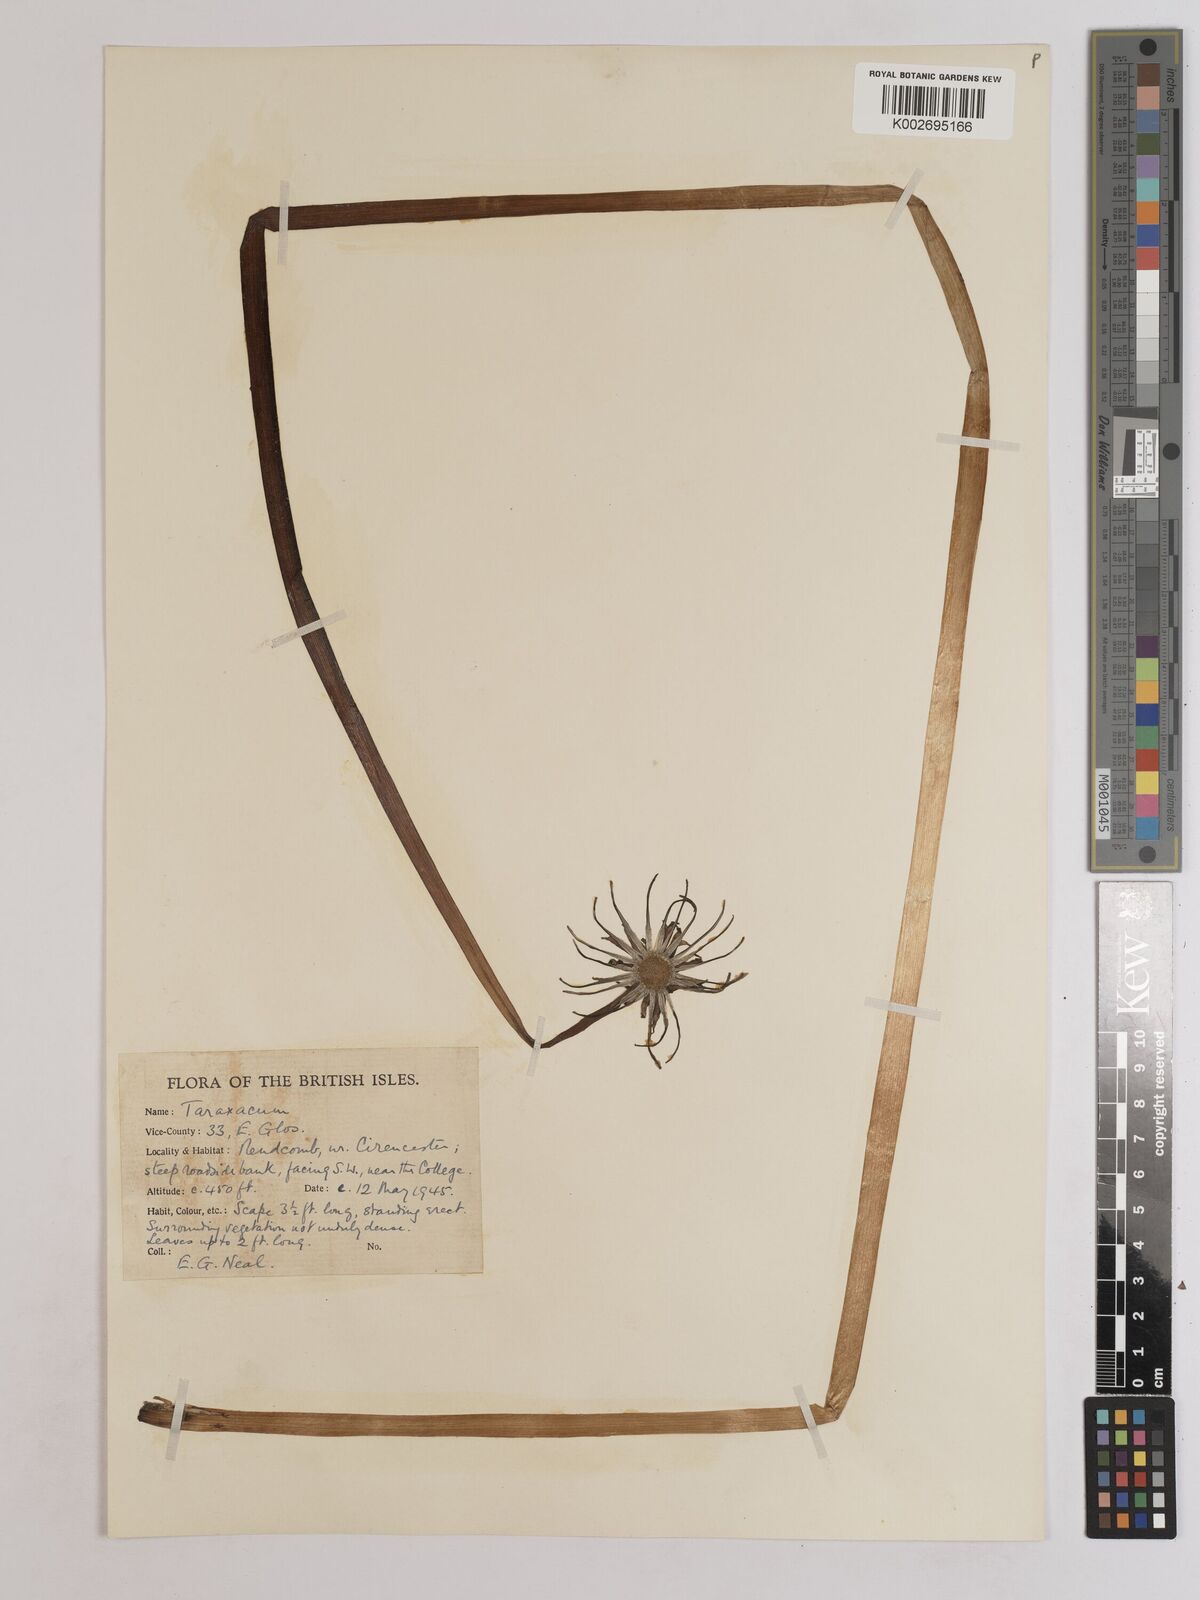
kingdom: Plantae
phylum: Tracheophyta
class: Magnoliopsida
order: Asterales
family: Asteraceae
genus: Taraxacum
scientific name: Taraxacum officinale
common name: Common dandelion
